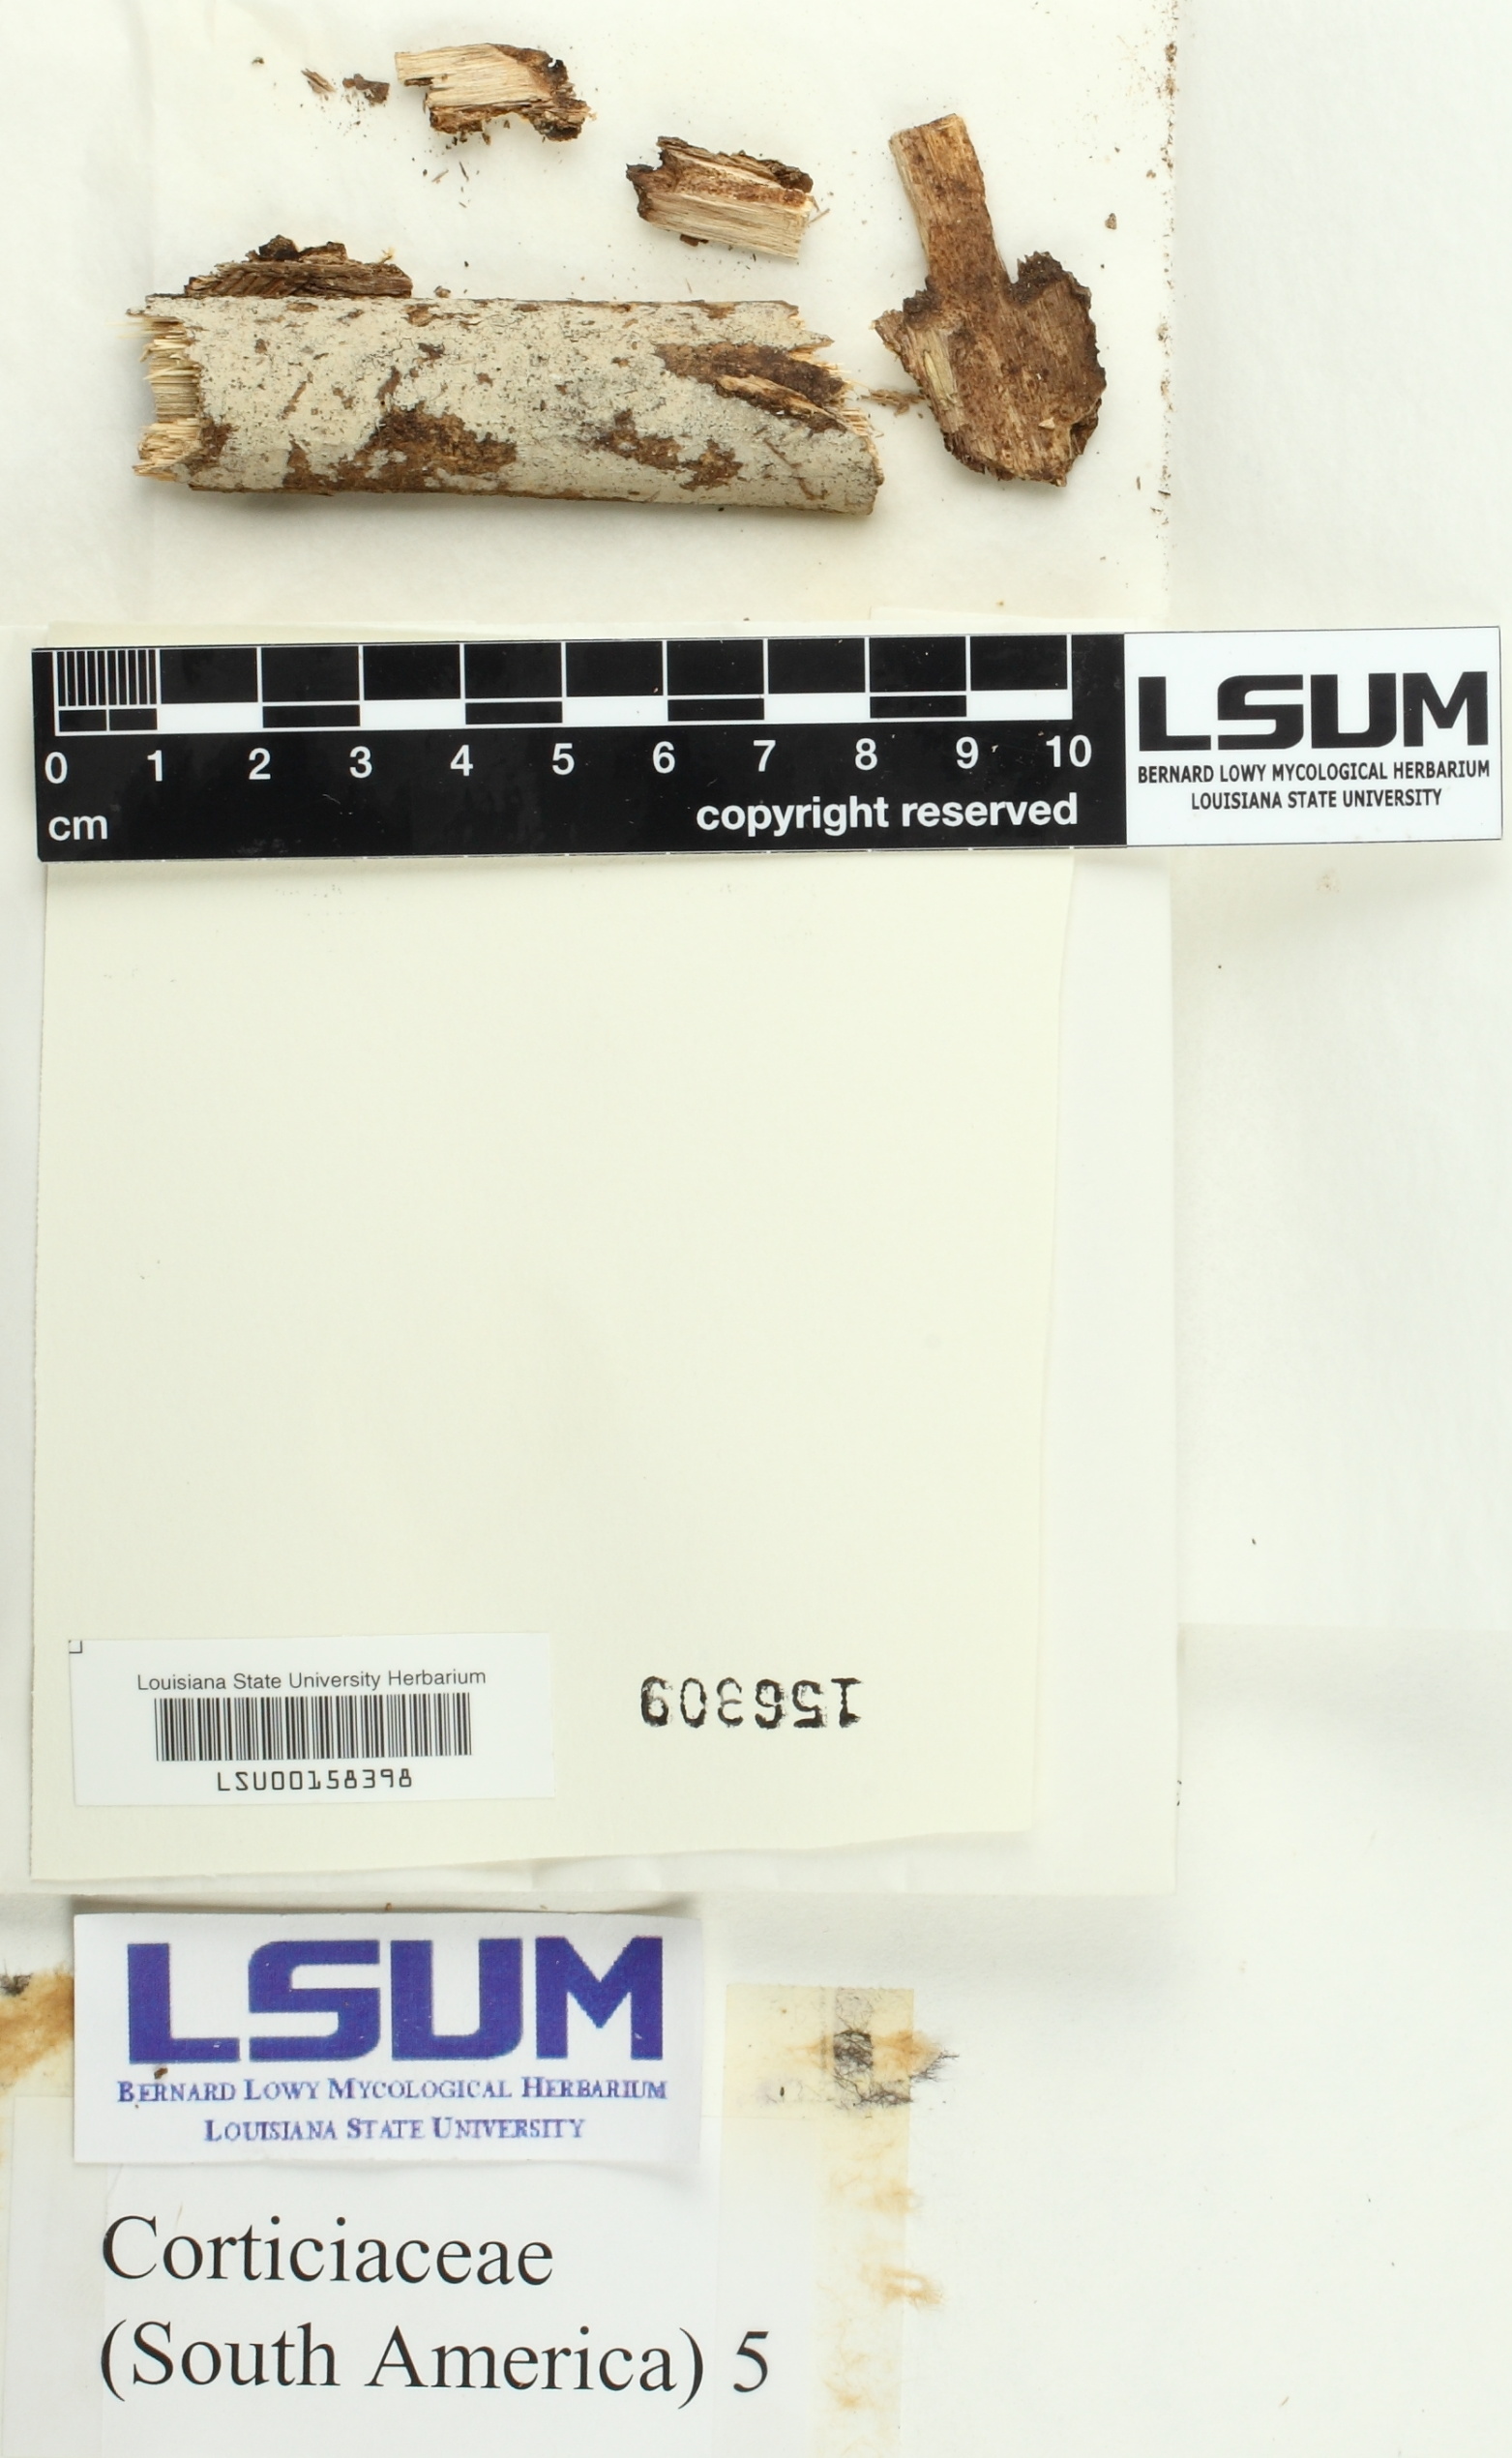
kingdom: Fungi
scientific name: Fungi
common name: Fungi
